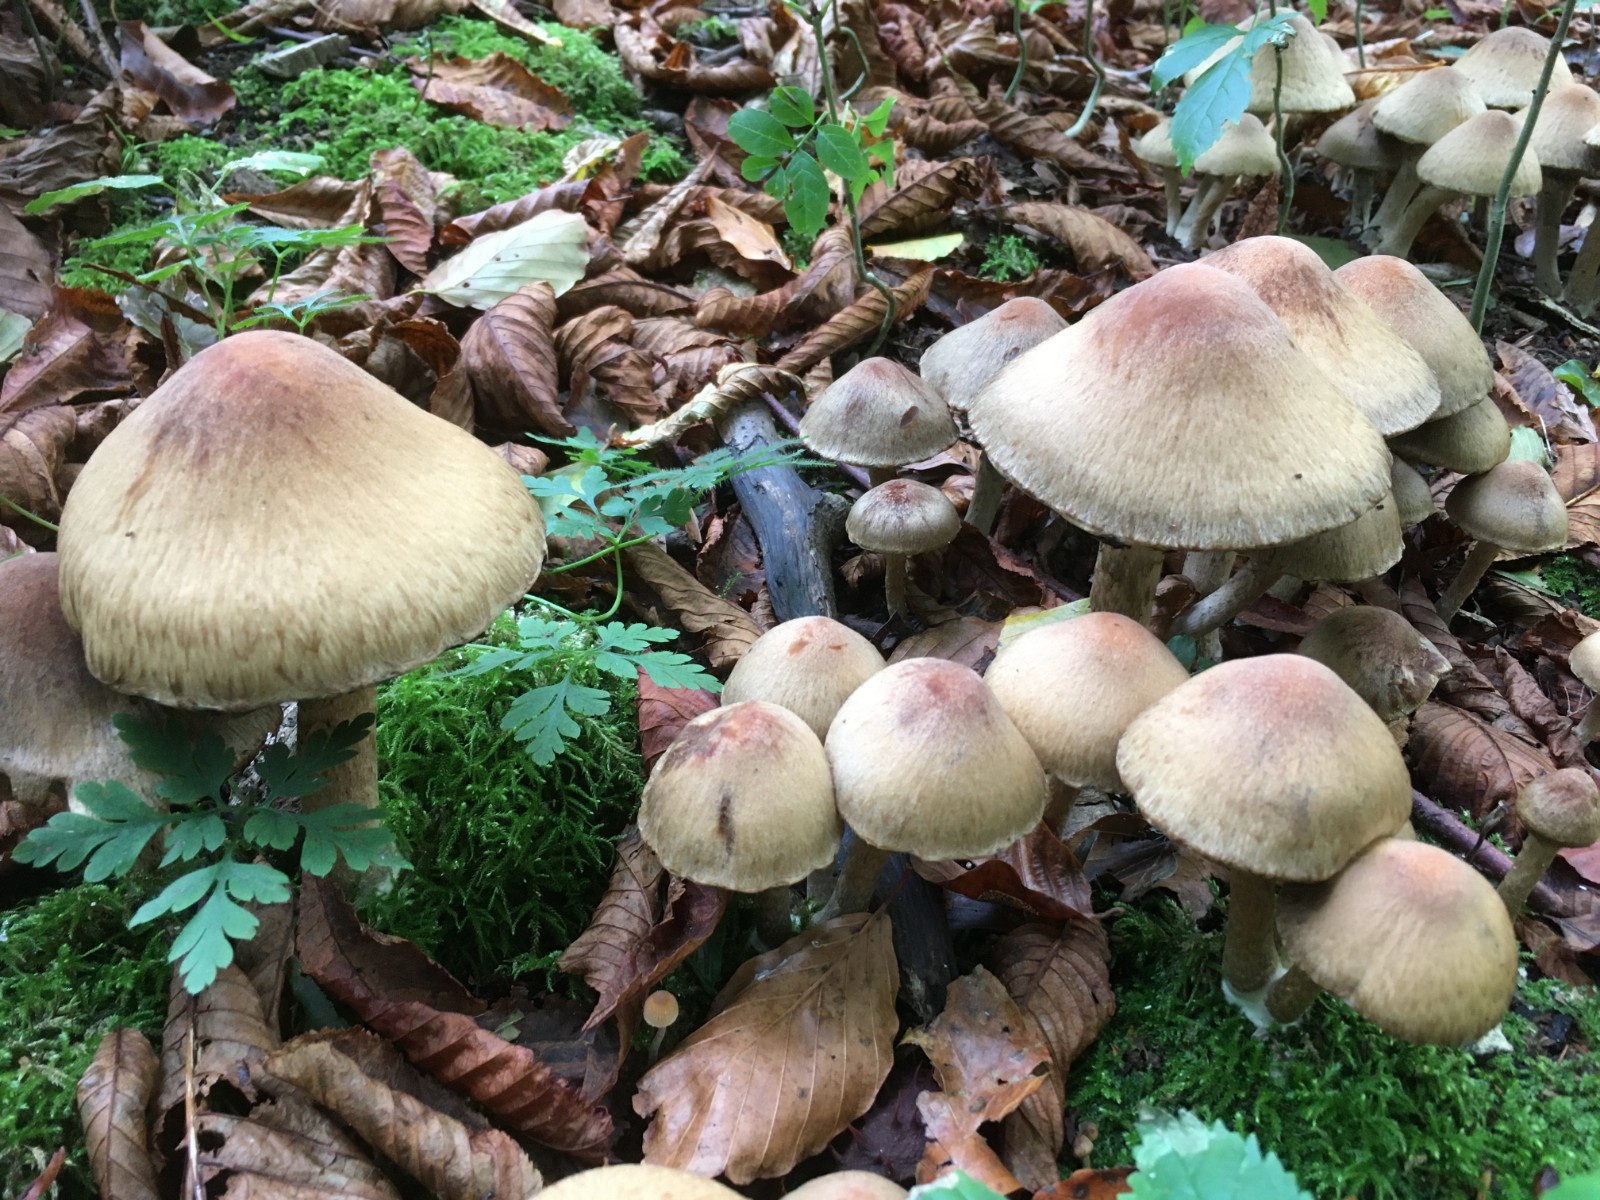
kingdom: Fungi
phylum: Basidiomycota
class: Agaricomycetes
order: Agaricales
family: Psathyrellaceae
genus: Lacrymaria
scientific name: Lacrymaria lacrymabunda
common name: grædende mørkhat
